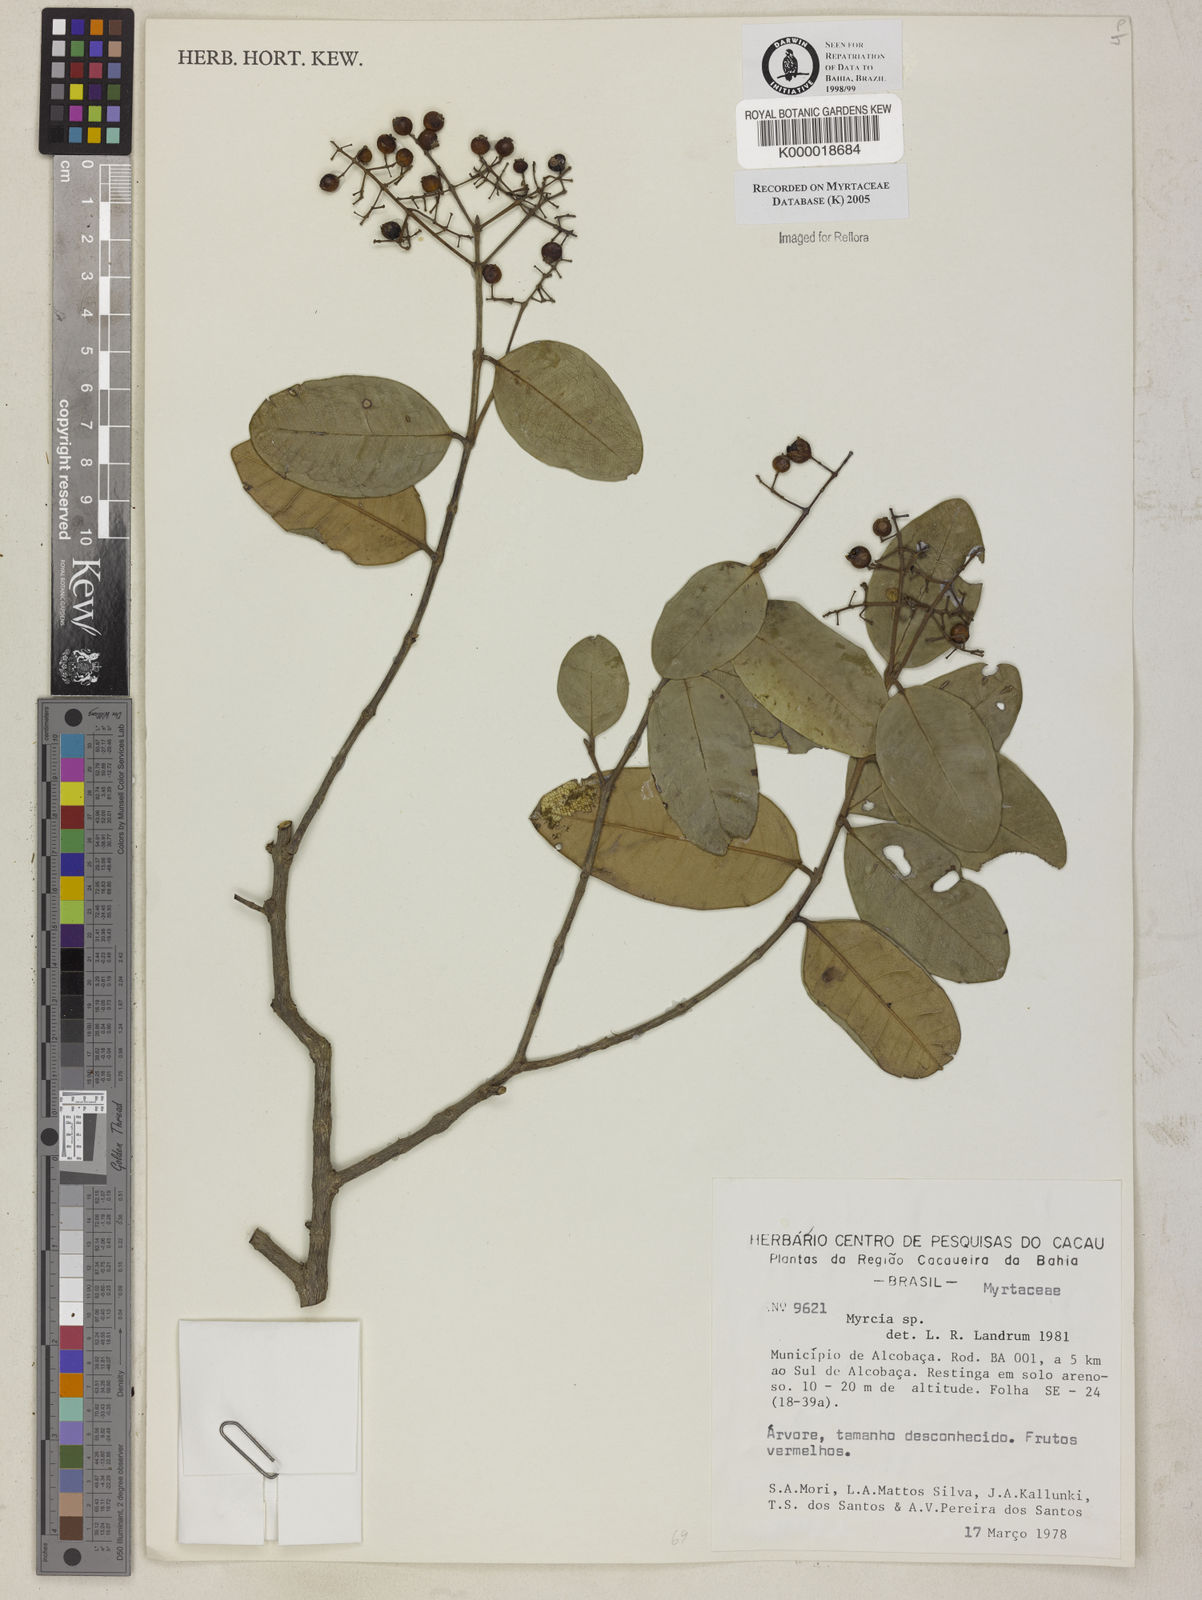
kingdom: Plantae
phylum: Tracheophyta
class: Magnoliopsida
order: Myrtales
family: Myrtaceae
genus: Myrcia
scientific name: Myrcia
